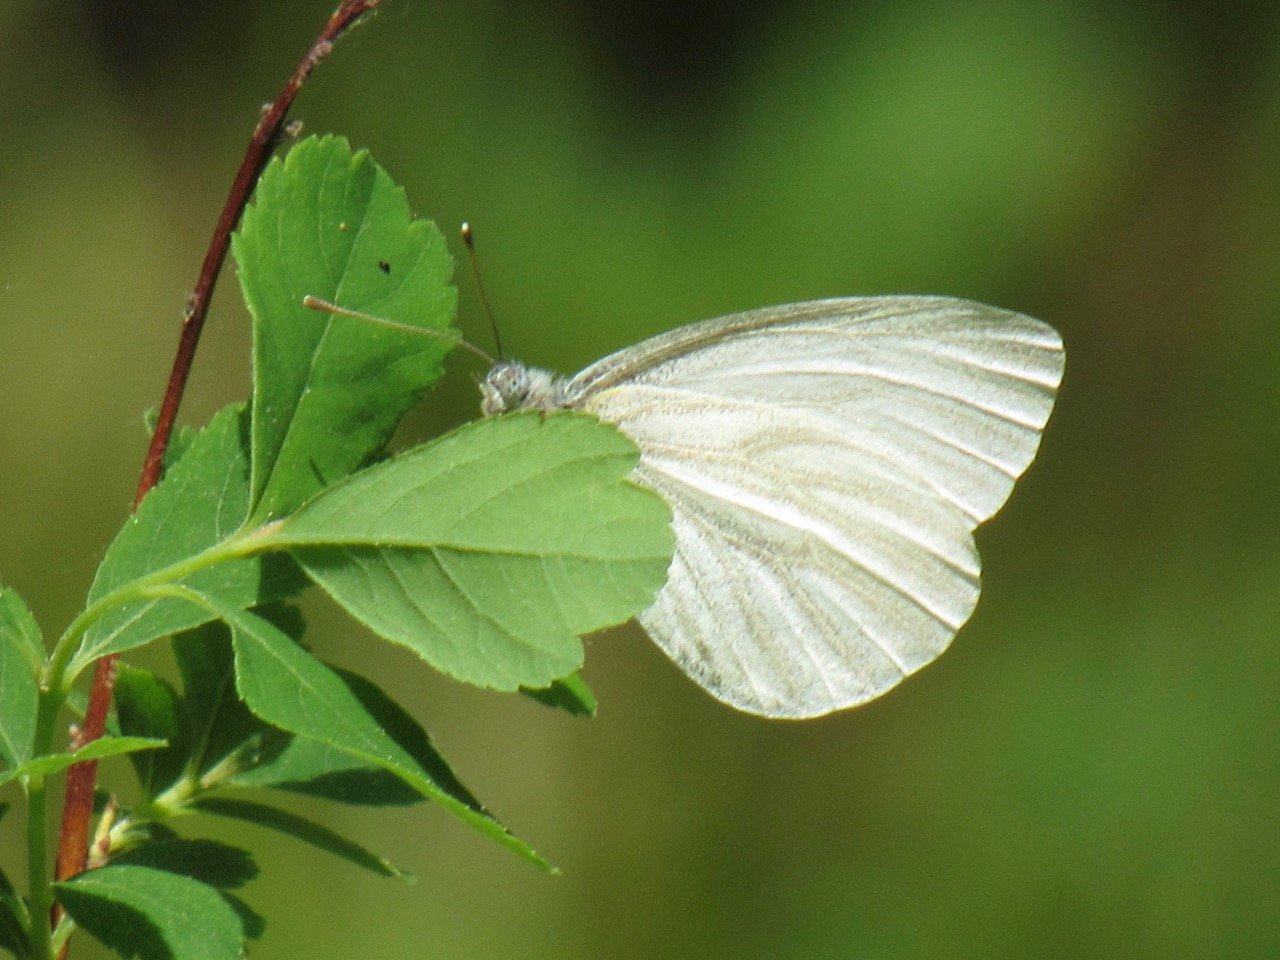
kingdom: Animalia
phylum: Arthropoda
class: Insecta
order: Lepidoptera
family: Pieridae
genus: Pieris
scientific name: Pieris virginiensis
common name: West Virginia White
